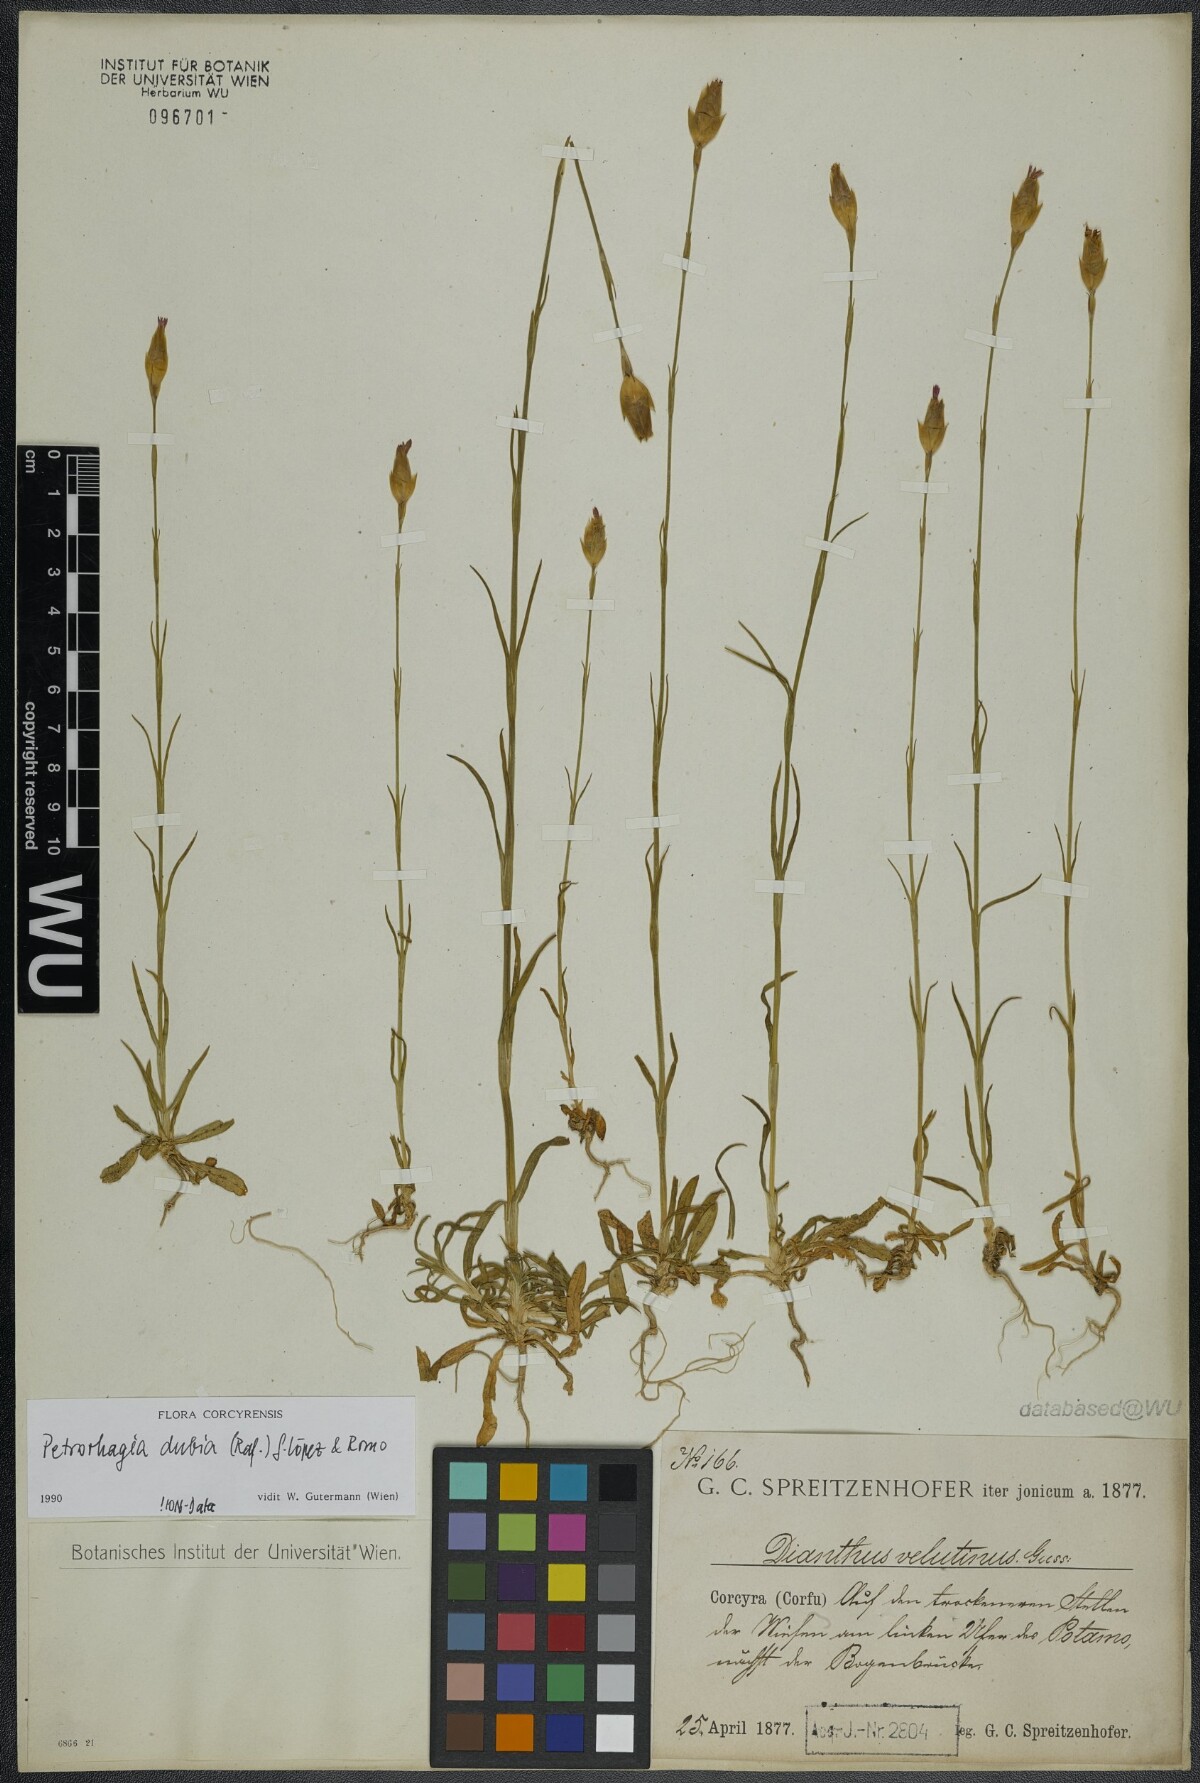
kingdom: Plantae
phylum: Tracheophyta
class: Magnoliopsida
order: Caryophyllales
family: Caryophyllaceae
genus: Petrorhagia
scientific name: Petrorhagia dubia
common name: Hairypink
